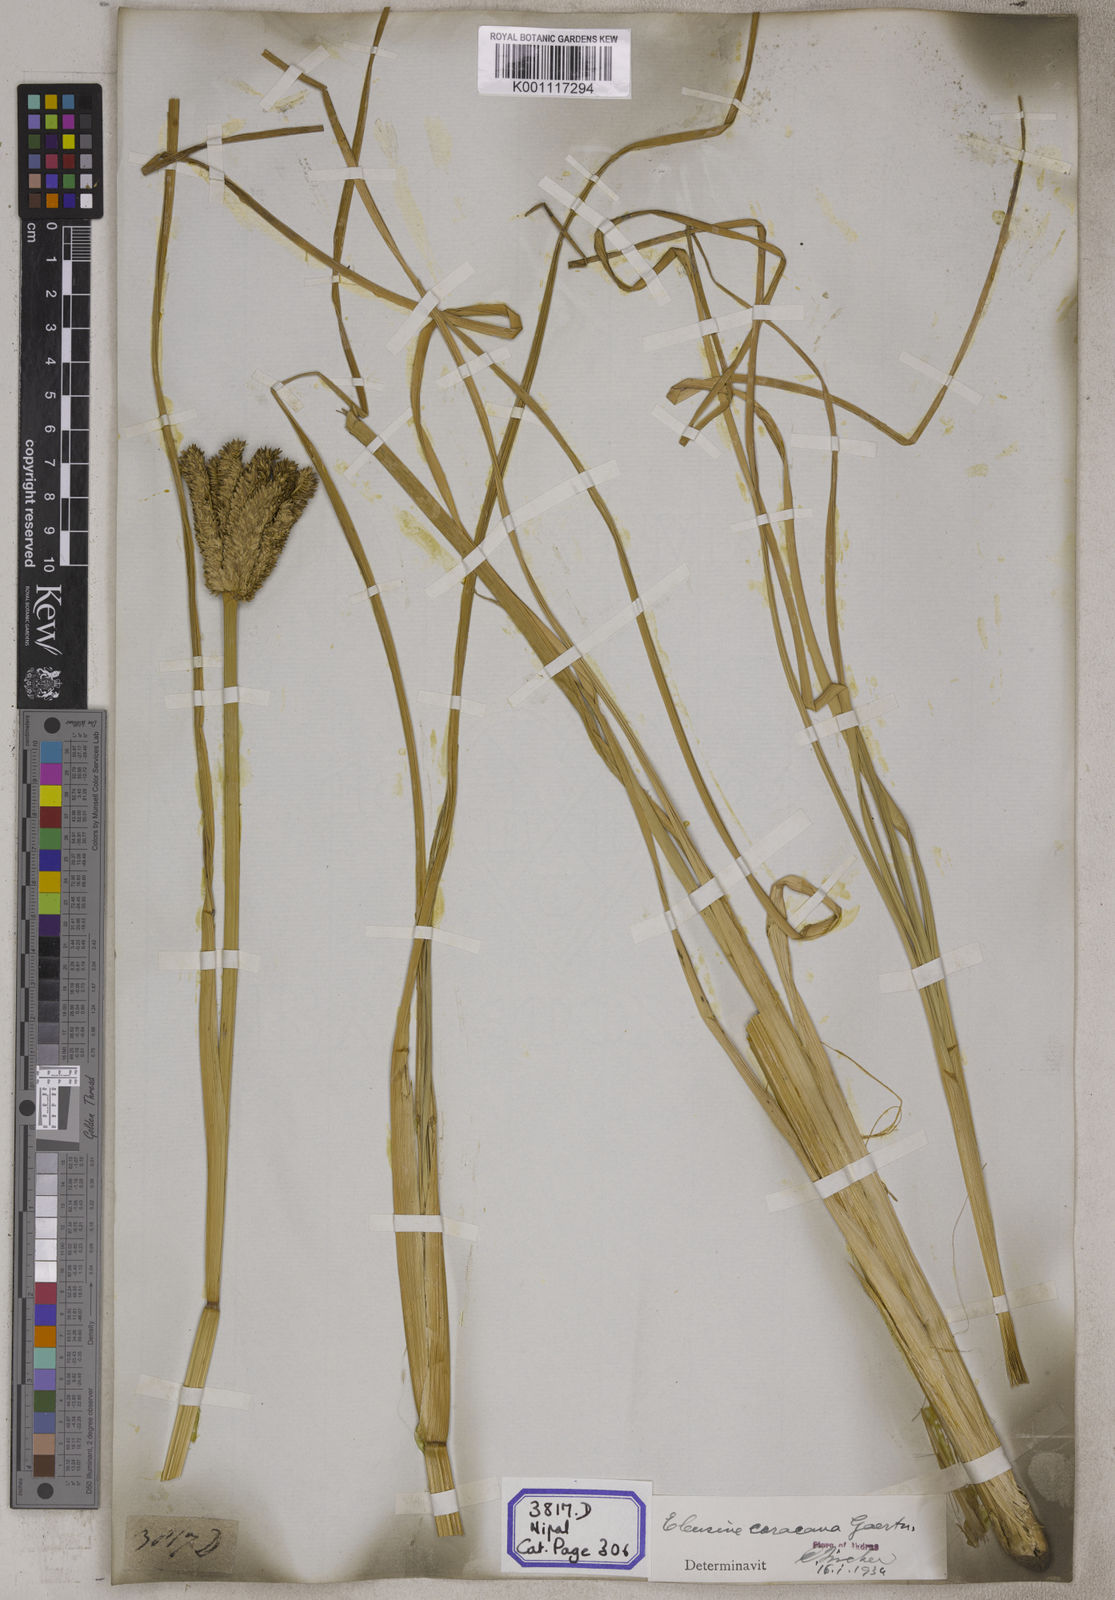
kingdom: Plantae
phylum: Tracheophyta
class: Liliopsida
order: Poales
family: Poaceae
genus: Eleusine
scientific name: Eleusine
